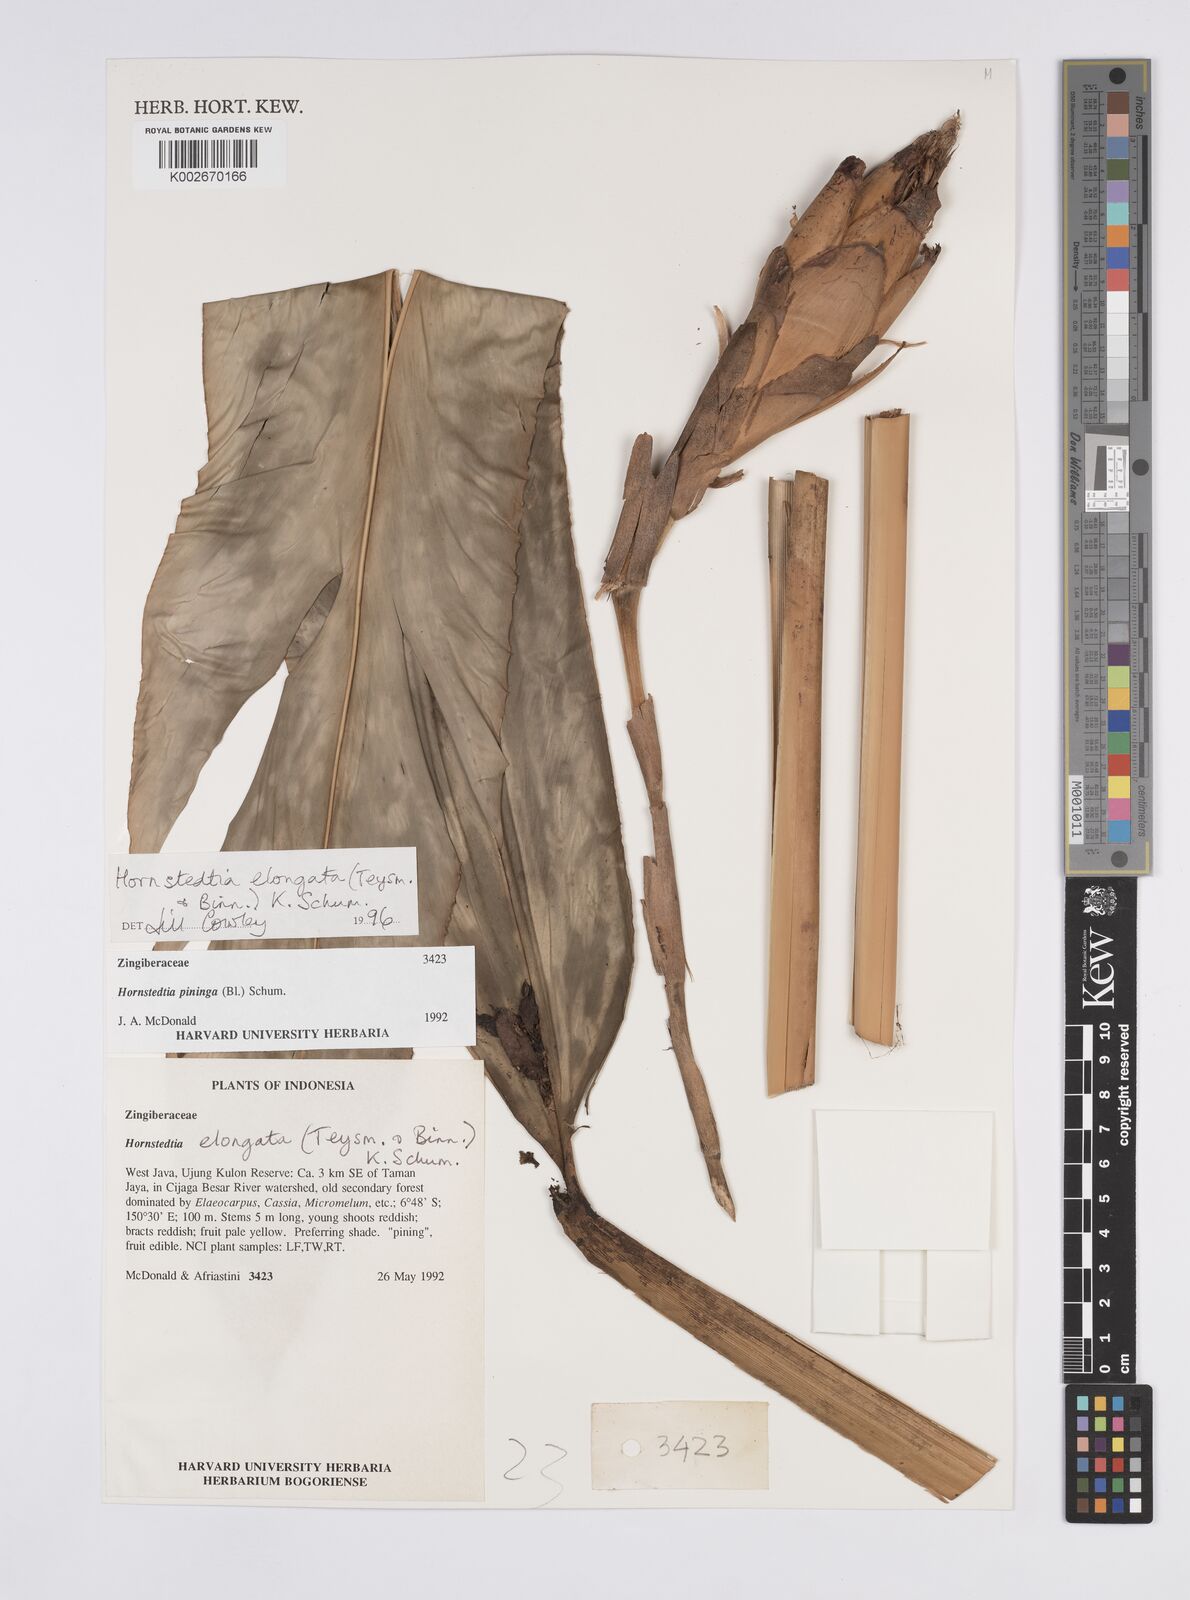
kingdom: Plantae
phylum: Tracheophyta
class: Liliopsida
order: Zingiberales
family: Zingiberaceae
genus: Hornstedtia
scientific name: Hornstedtia elongata
